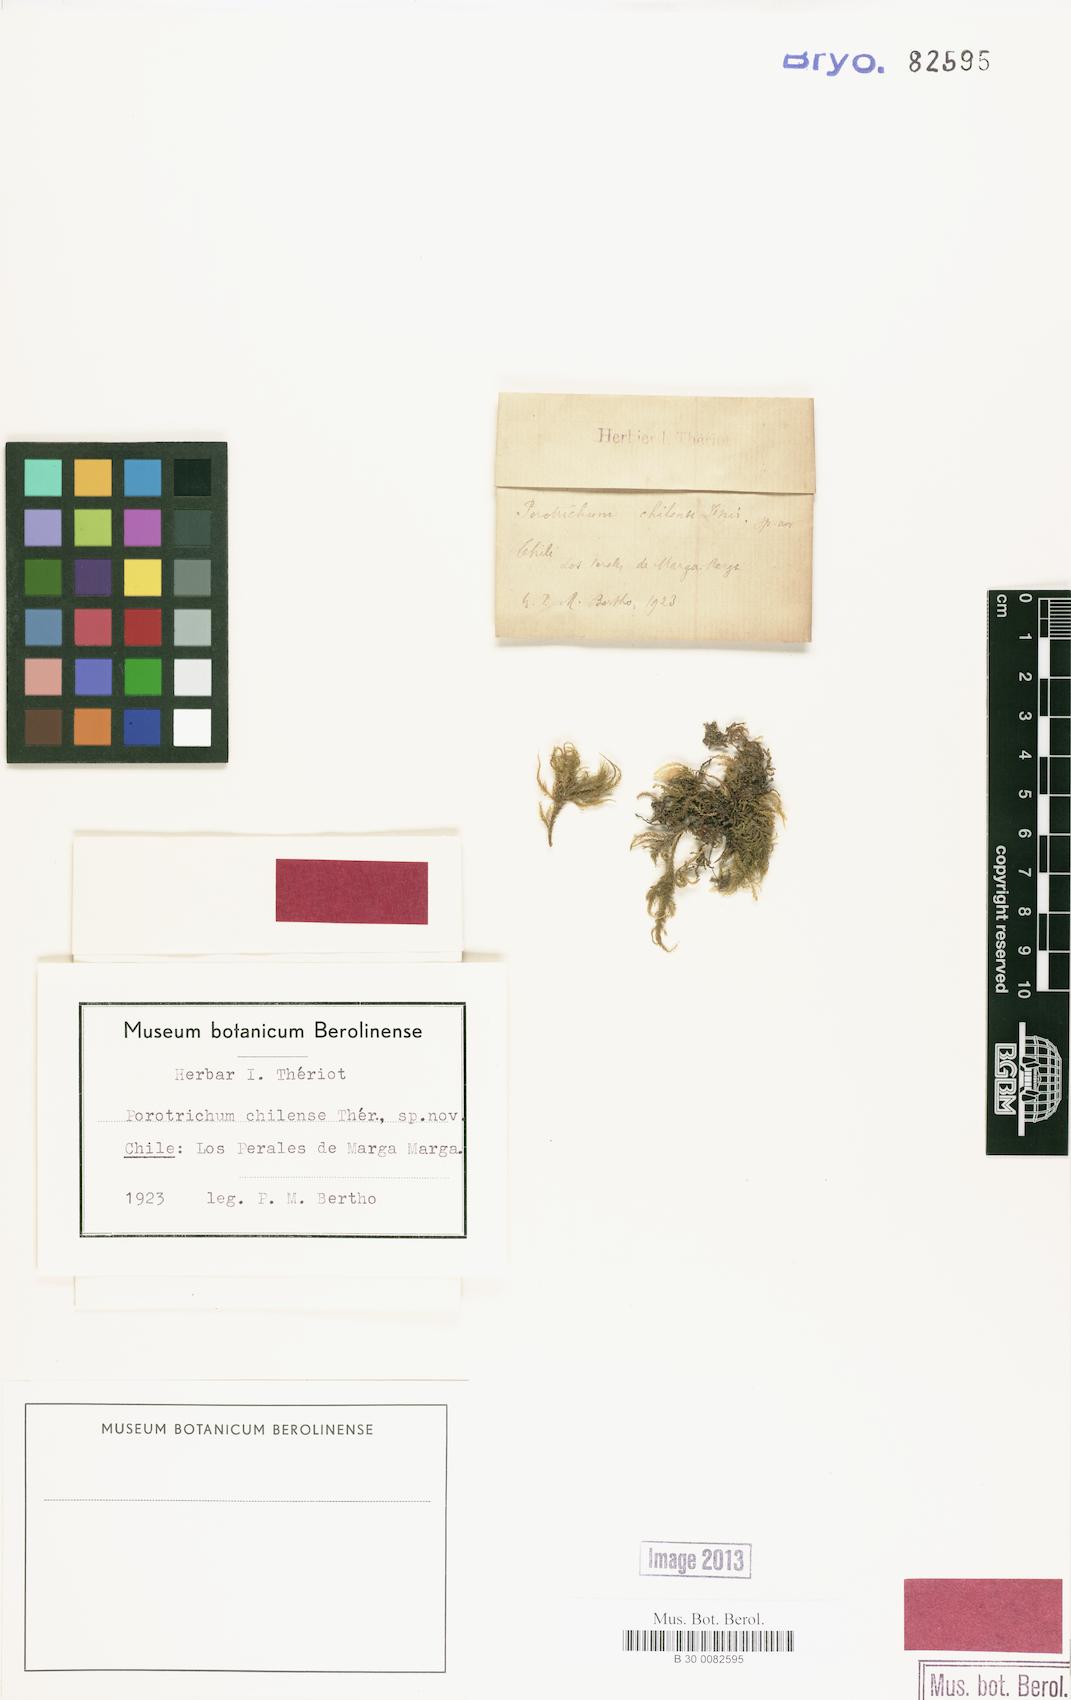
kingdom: Plantae
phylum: Bryophyta
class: Bryopsida
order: Hypnales
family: Neckeraceae
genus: Porotrichum
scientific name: Porotrichum chilense
